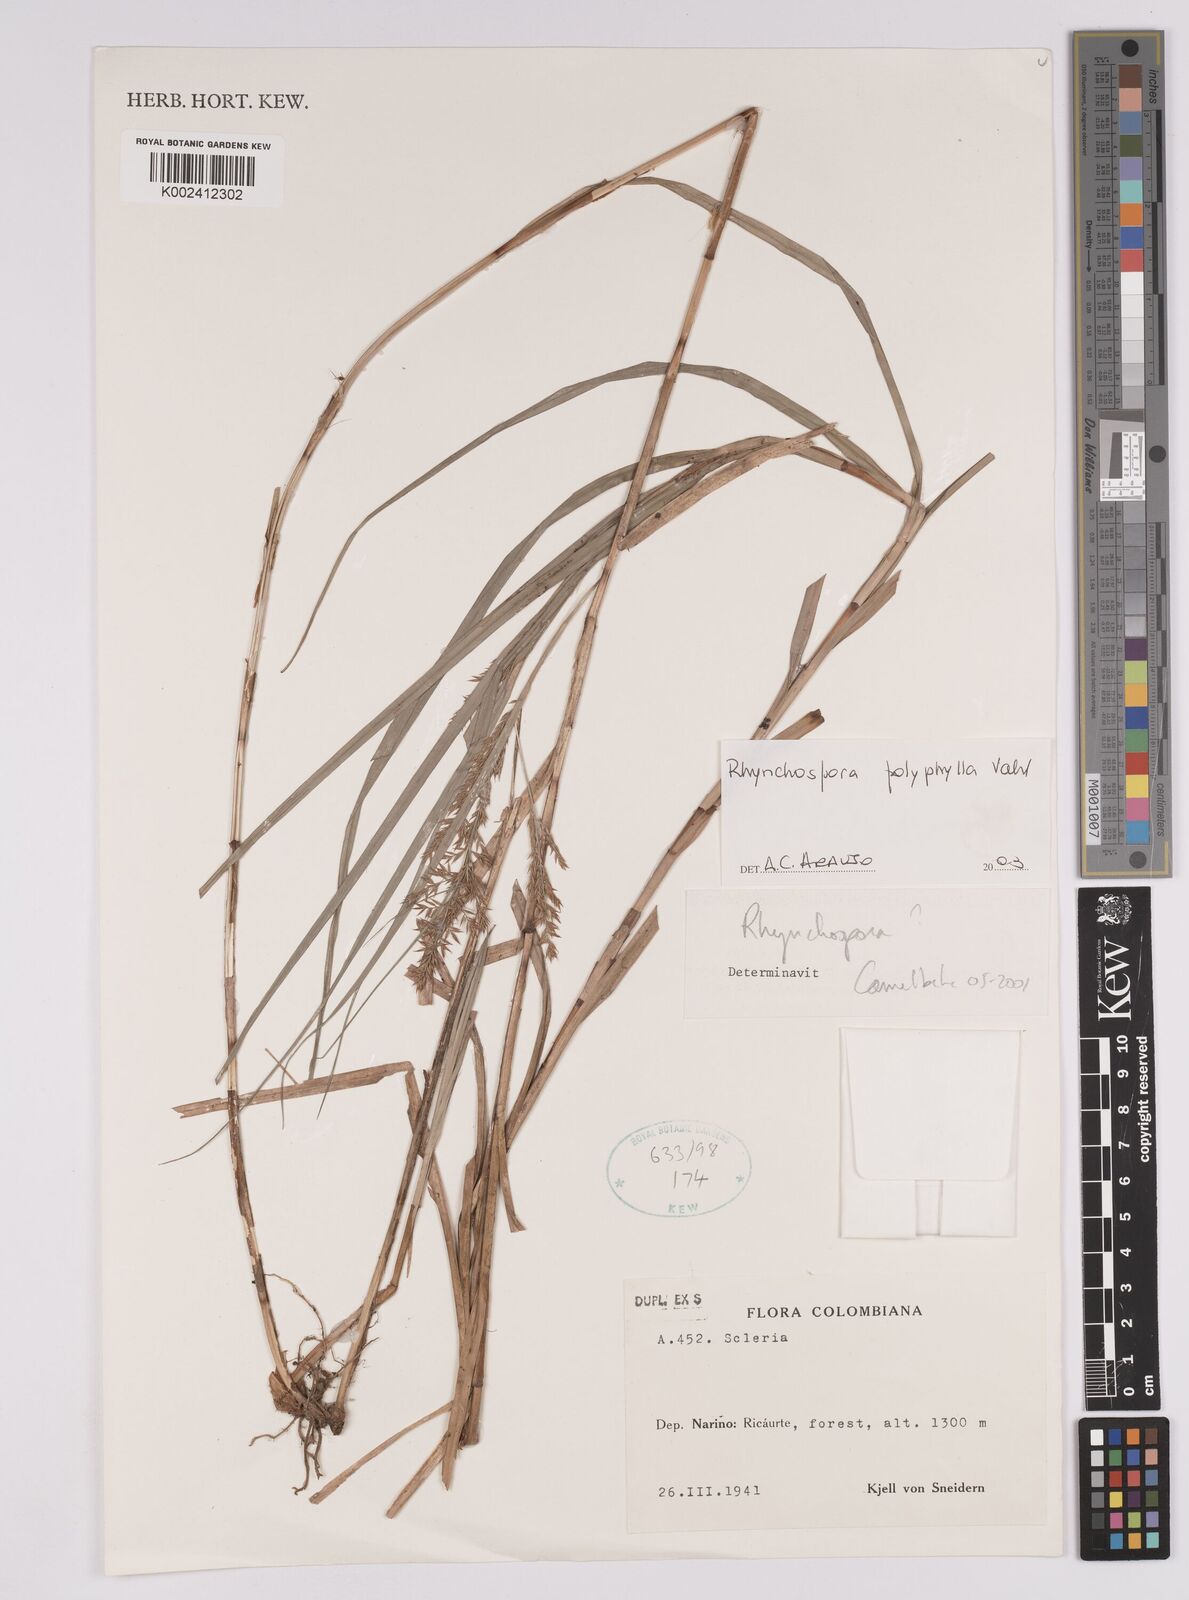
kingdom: Plantae
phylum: Tracheophyta
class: Liliopsida
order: Poales
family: Cyperaceae
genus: Rhynchospora
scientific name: Rhynchospora polyphylla
